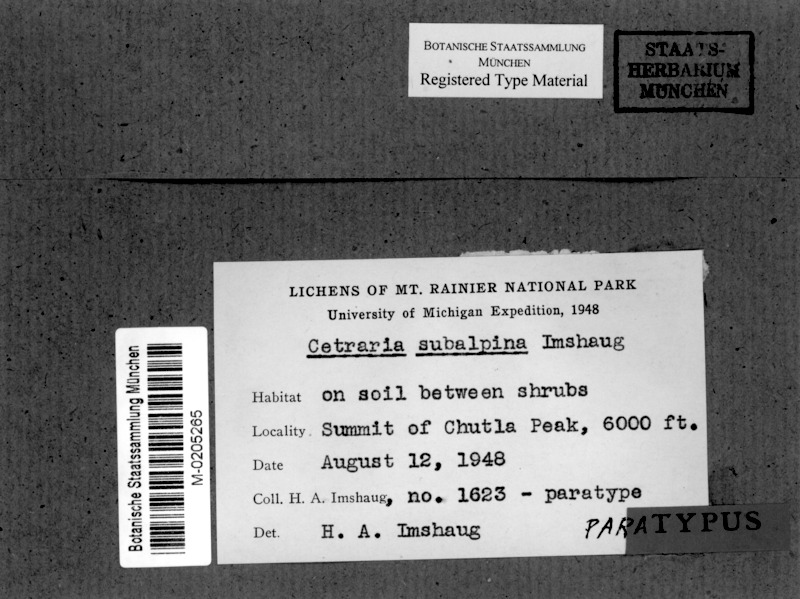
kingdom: Fungi
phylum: Ascomycota
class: Lecanoromycetes
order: Lecanorales
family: Parmeliaceae
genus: Nephromopsis
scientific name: Nephromopsis subalpina
